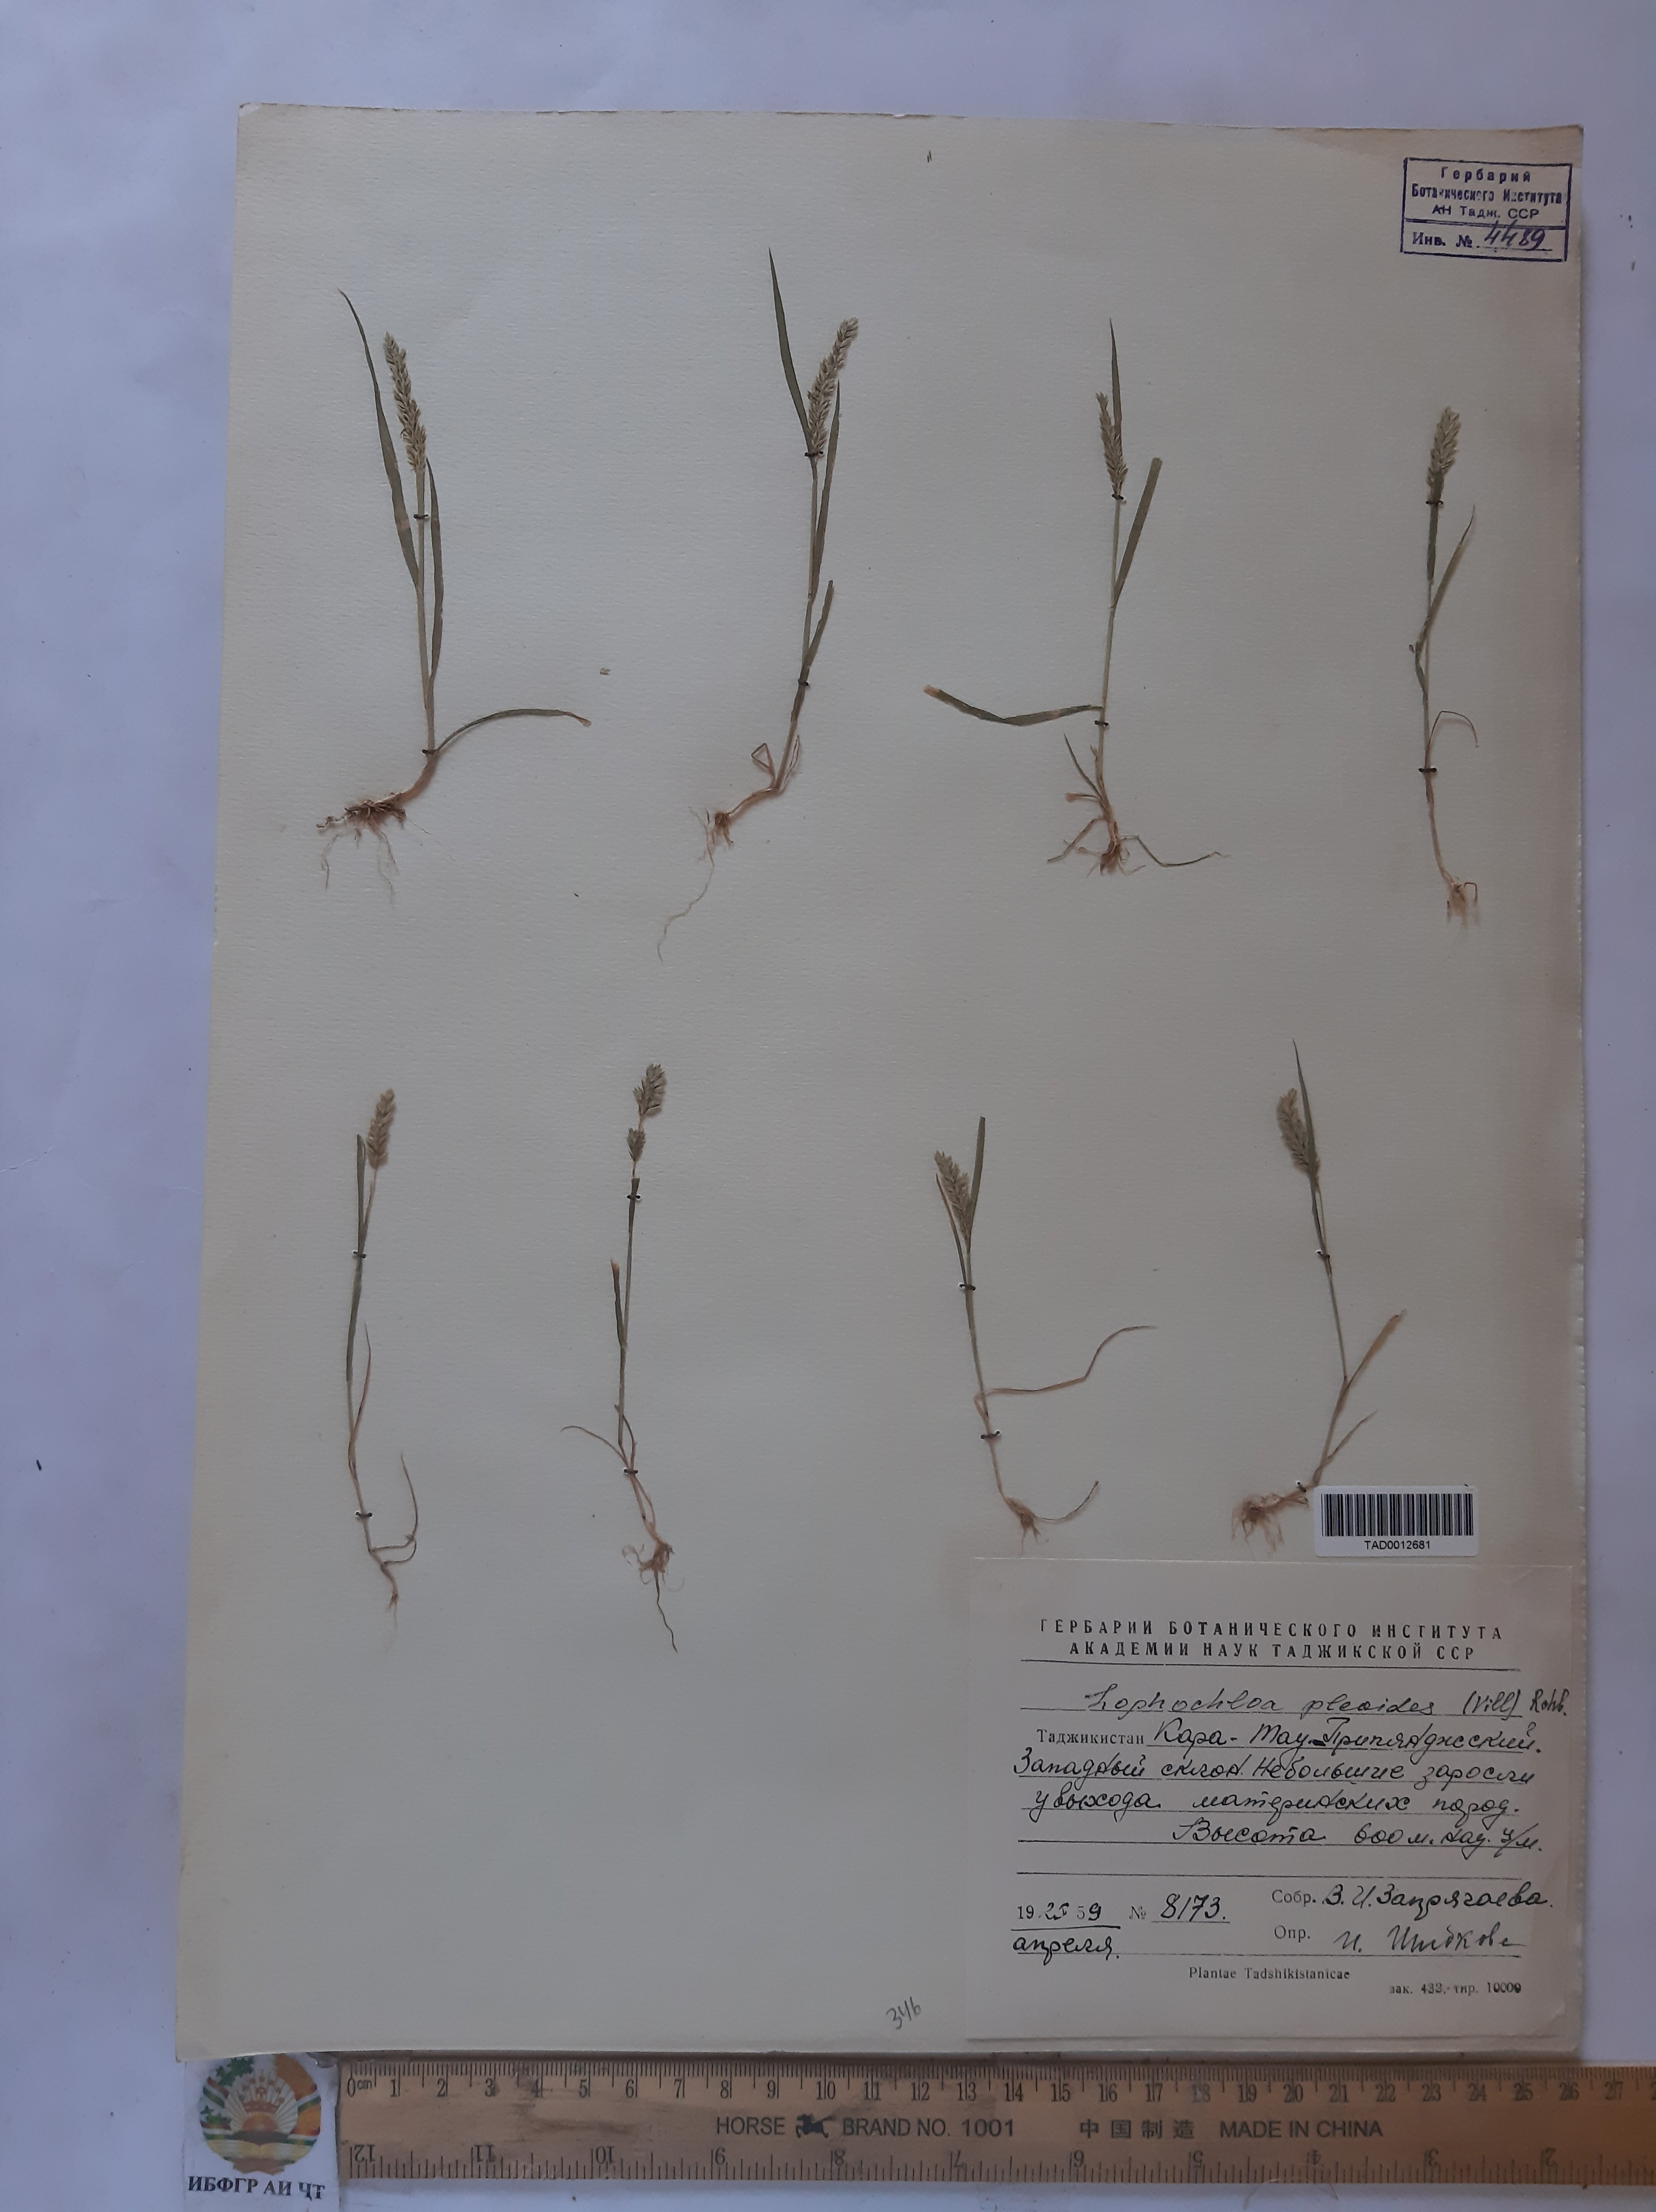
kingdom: Plantae
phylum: Tracheophyta
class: Liliopsida
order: Poales
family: Poaceae
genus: Rostraria
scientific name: Rostraria cristata
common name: Mediterranean hair-grass
